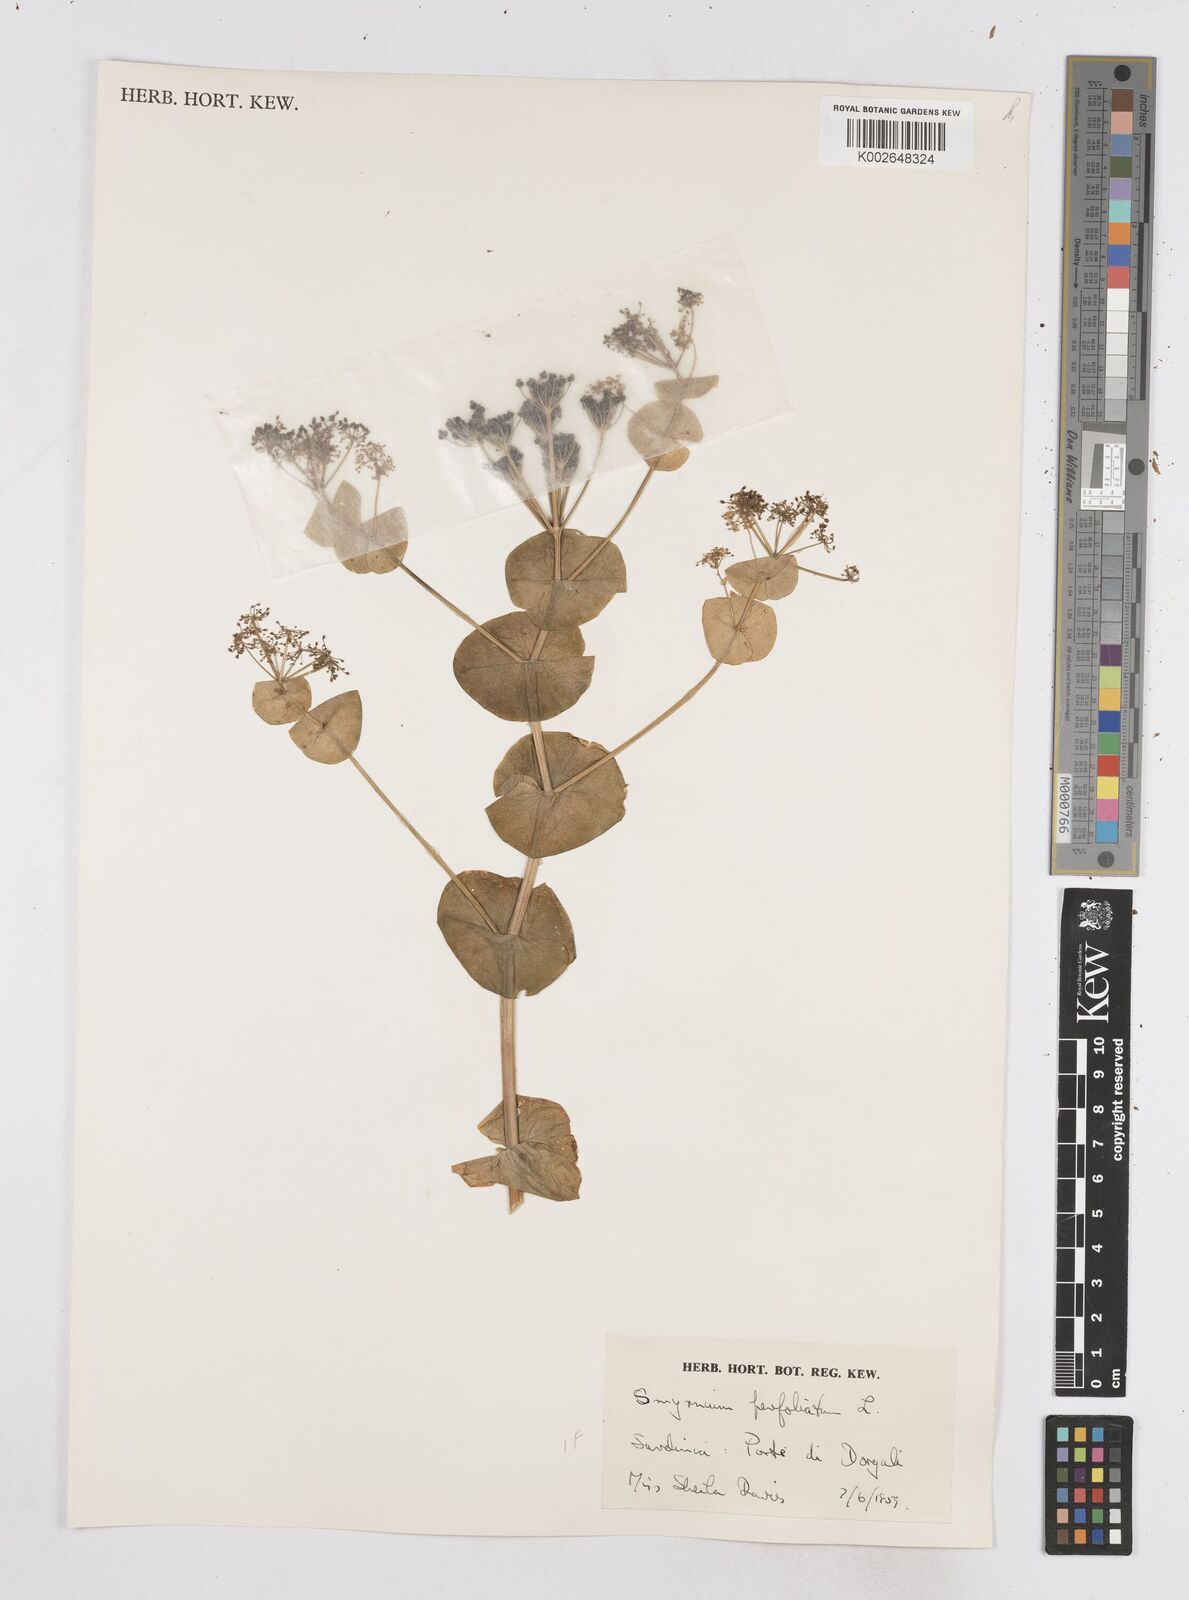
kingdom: Plantae
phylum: Tracheophyta
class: Magnoliopsida
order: Apiales
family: Apiaceae
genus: Smyrnium
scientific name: Smyrnium perfoliatum
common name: Perfoliate alexanders
